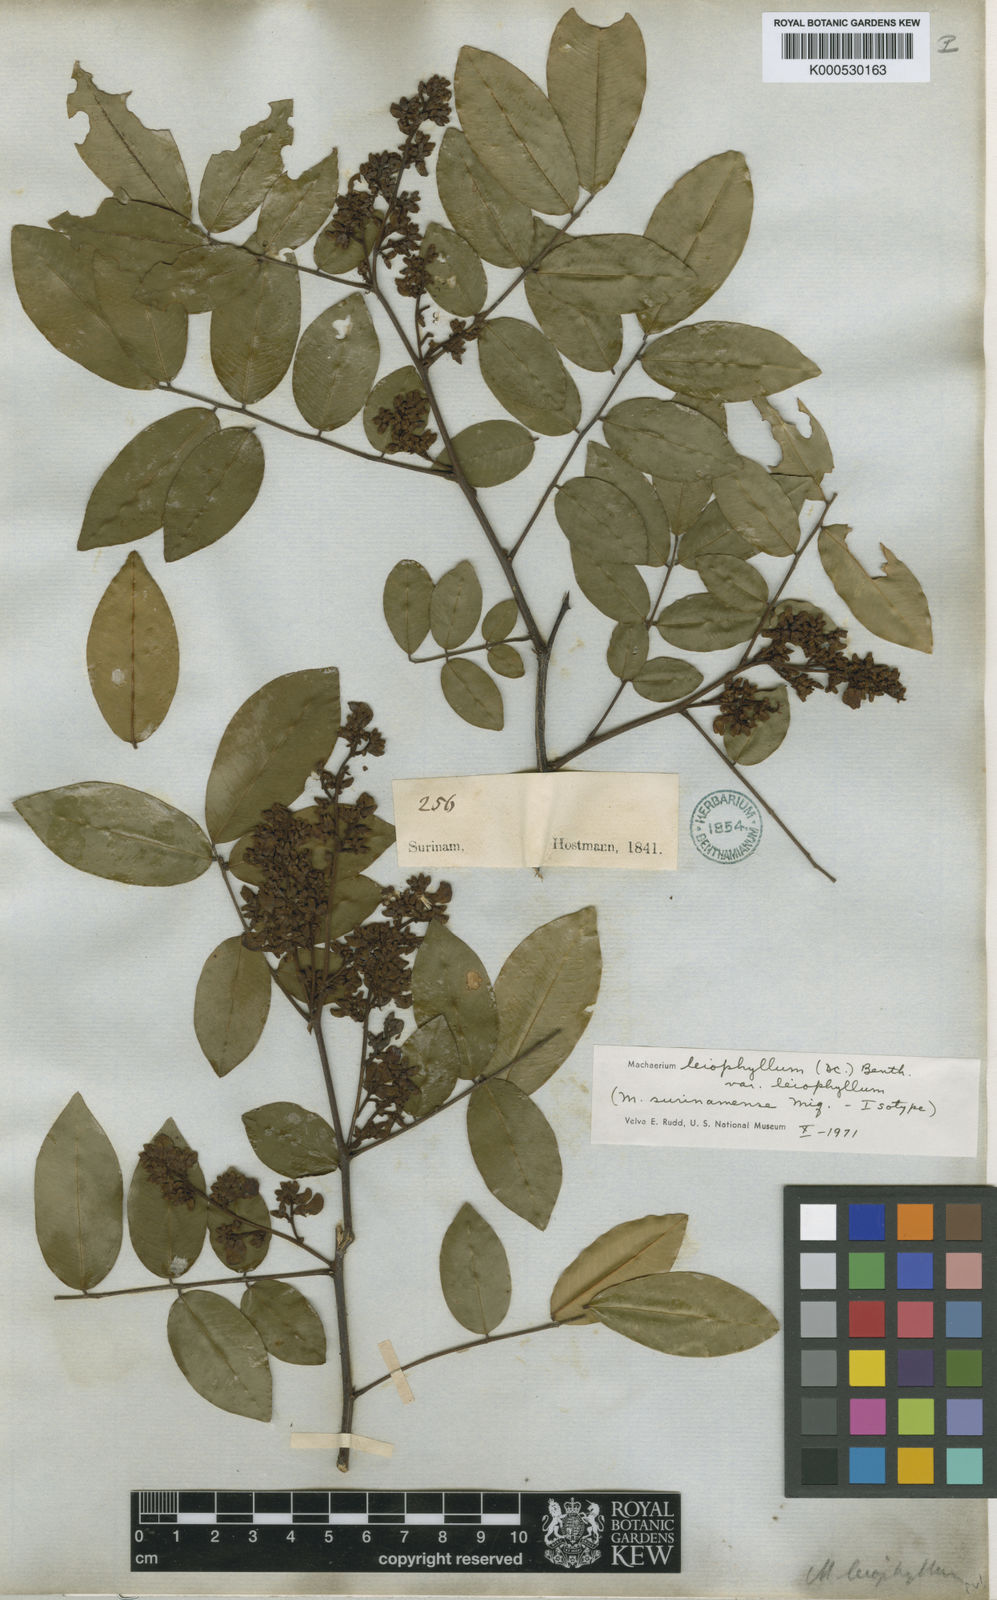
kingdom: Plantae
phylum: Tracheophyta
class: Magnoliopsida
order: Fabales
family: Fabaceae
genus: Machaerium
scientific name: Machaerium leiophyllum
